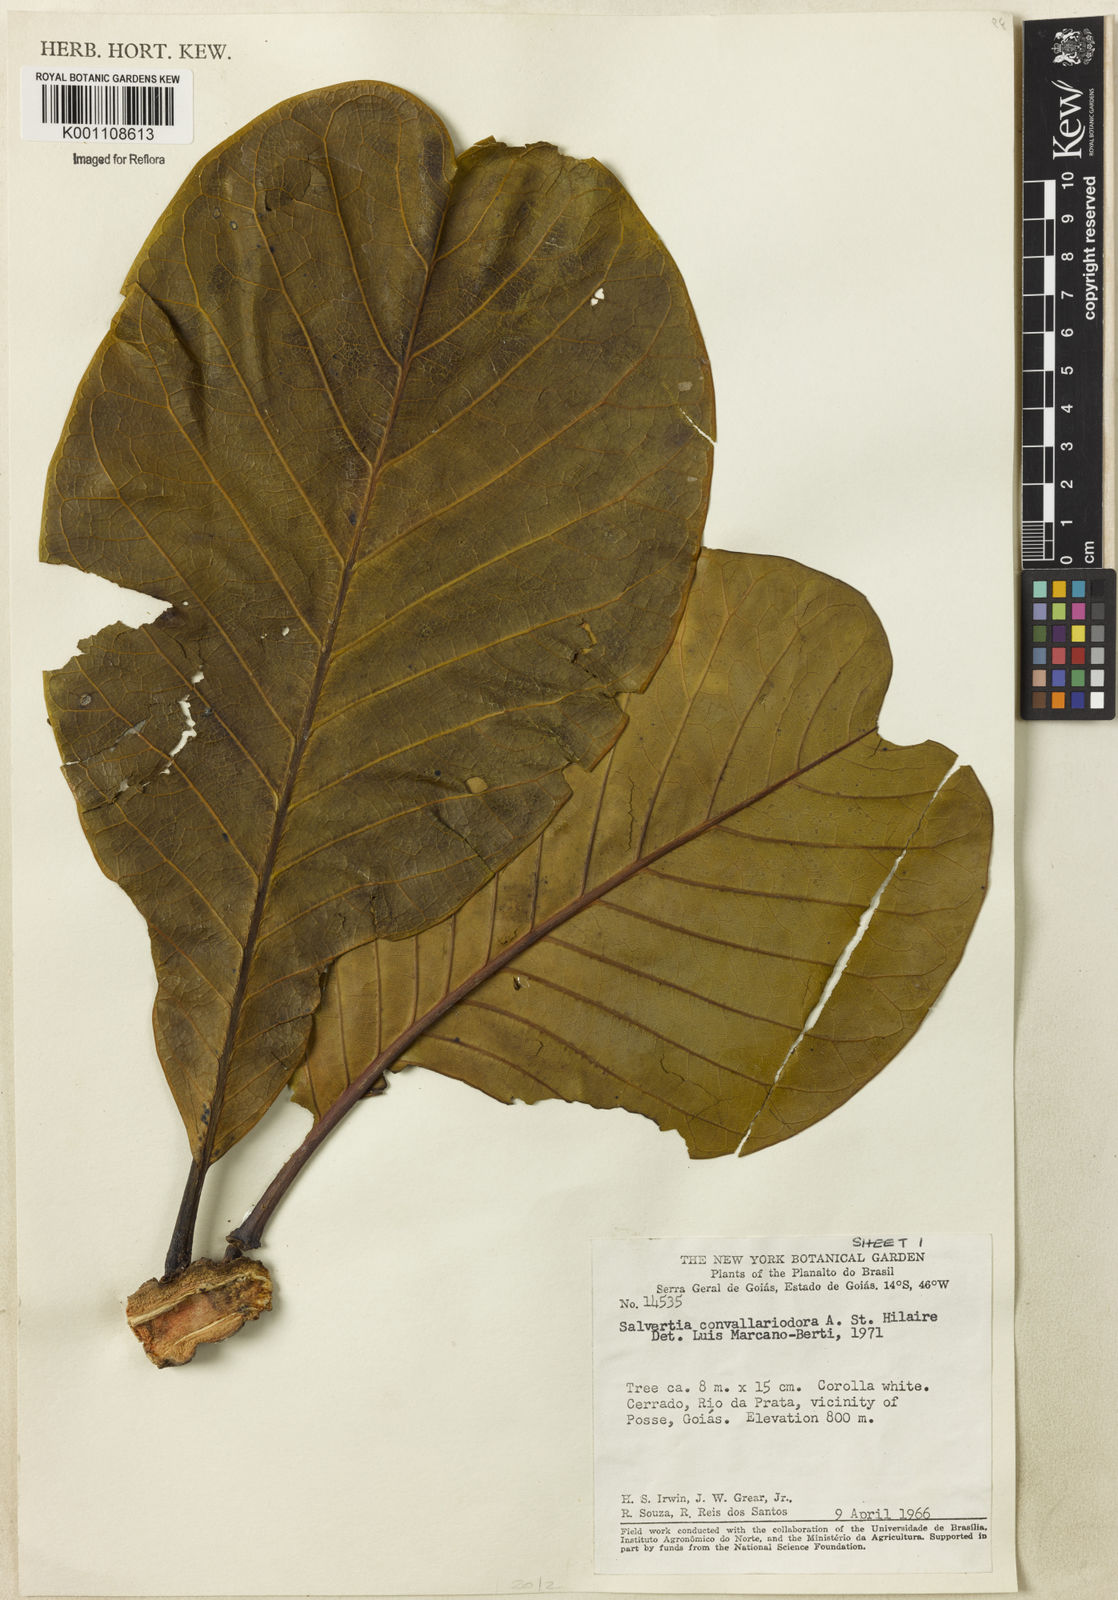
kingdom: Plantae
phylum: Tracheophyta
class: Magnoliopsida
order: Myrtales
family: Vochysiaceae
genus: Salvertia
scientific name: Salvertia convallariodora
